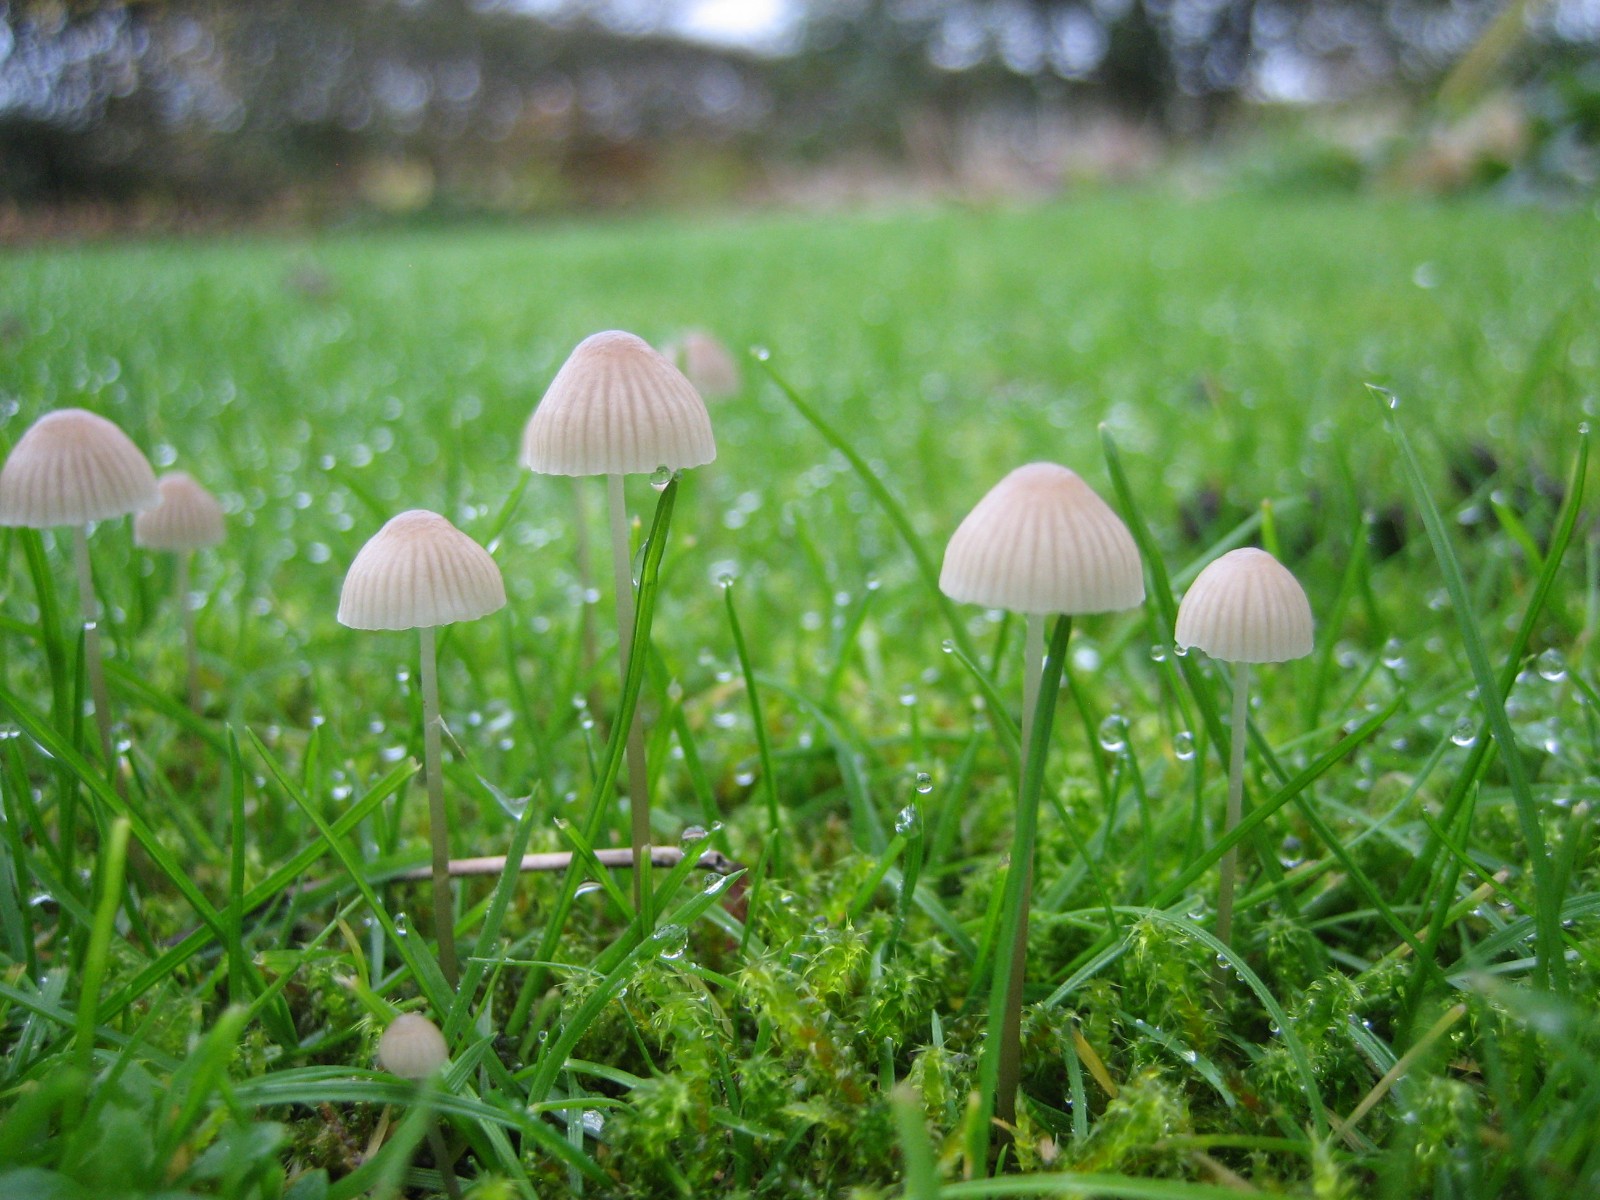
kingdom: Fungi
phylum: Basidiomycota
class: Agaricomycetes
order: Agaricales
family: Mycenaceae
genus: Mycena
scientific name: Mycena
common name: huesvamp
